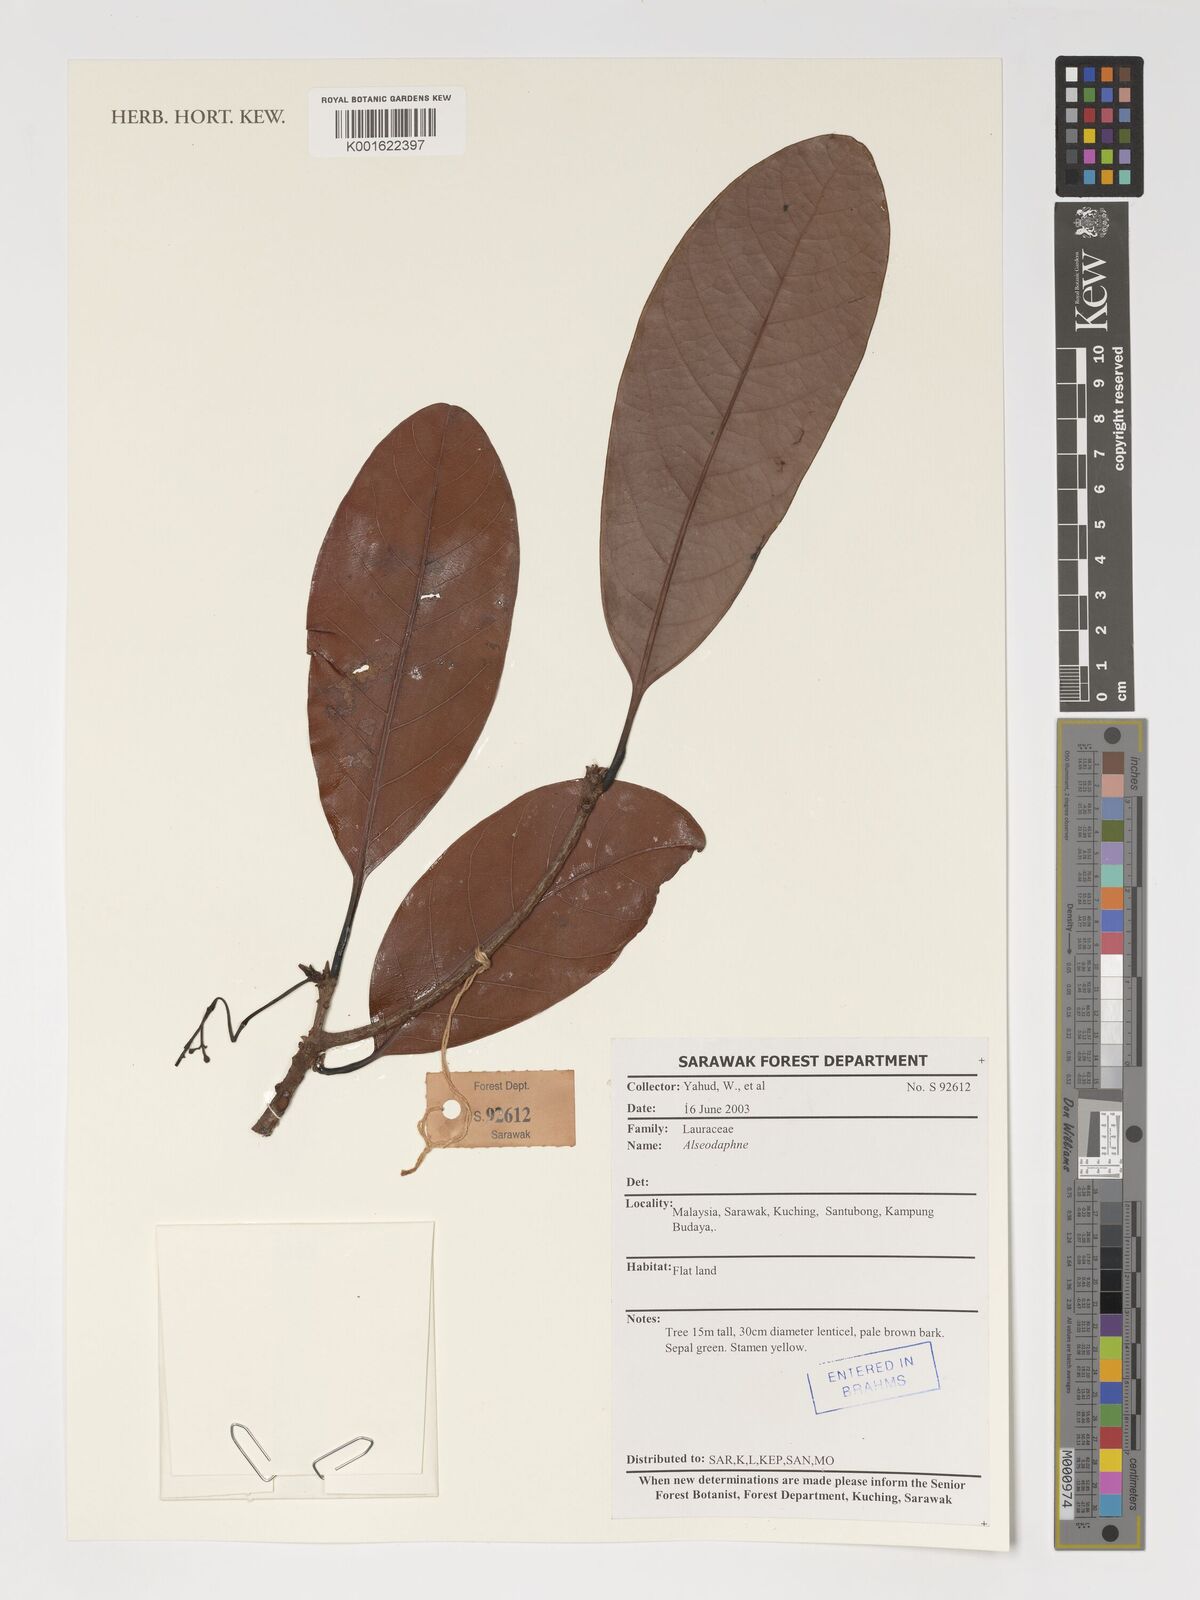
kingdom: Plantae
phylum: Tracheophyta
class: Magnoliopsida
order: Laurales
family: Lauraceae
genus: Alseodaphne
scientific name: Alseodaphne
